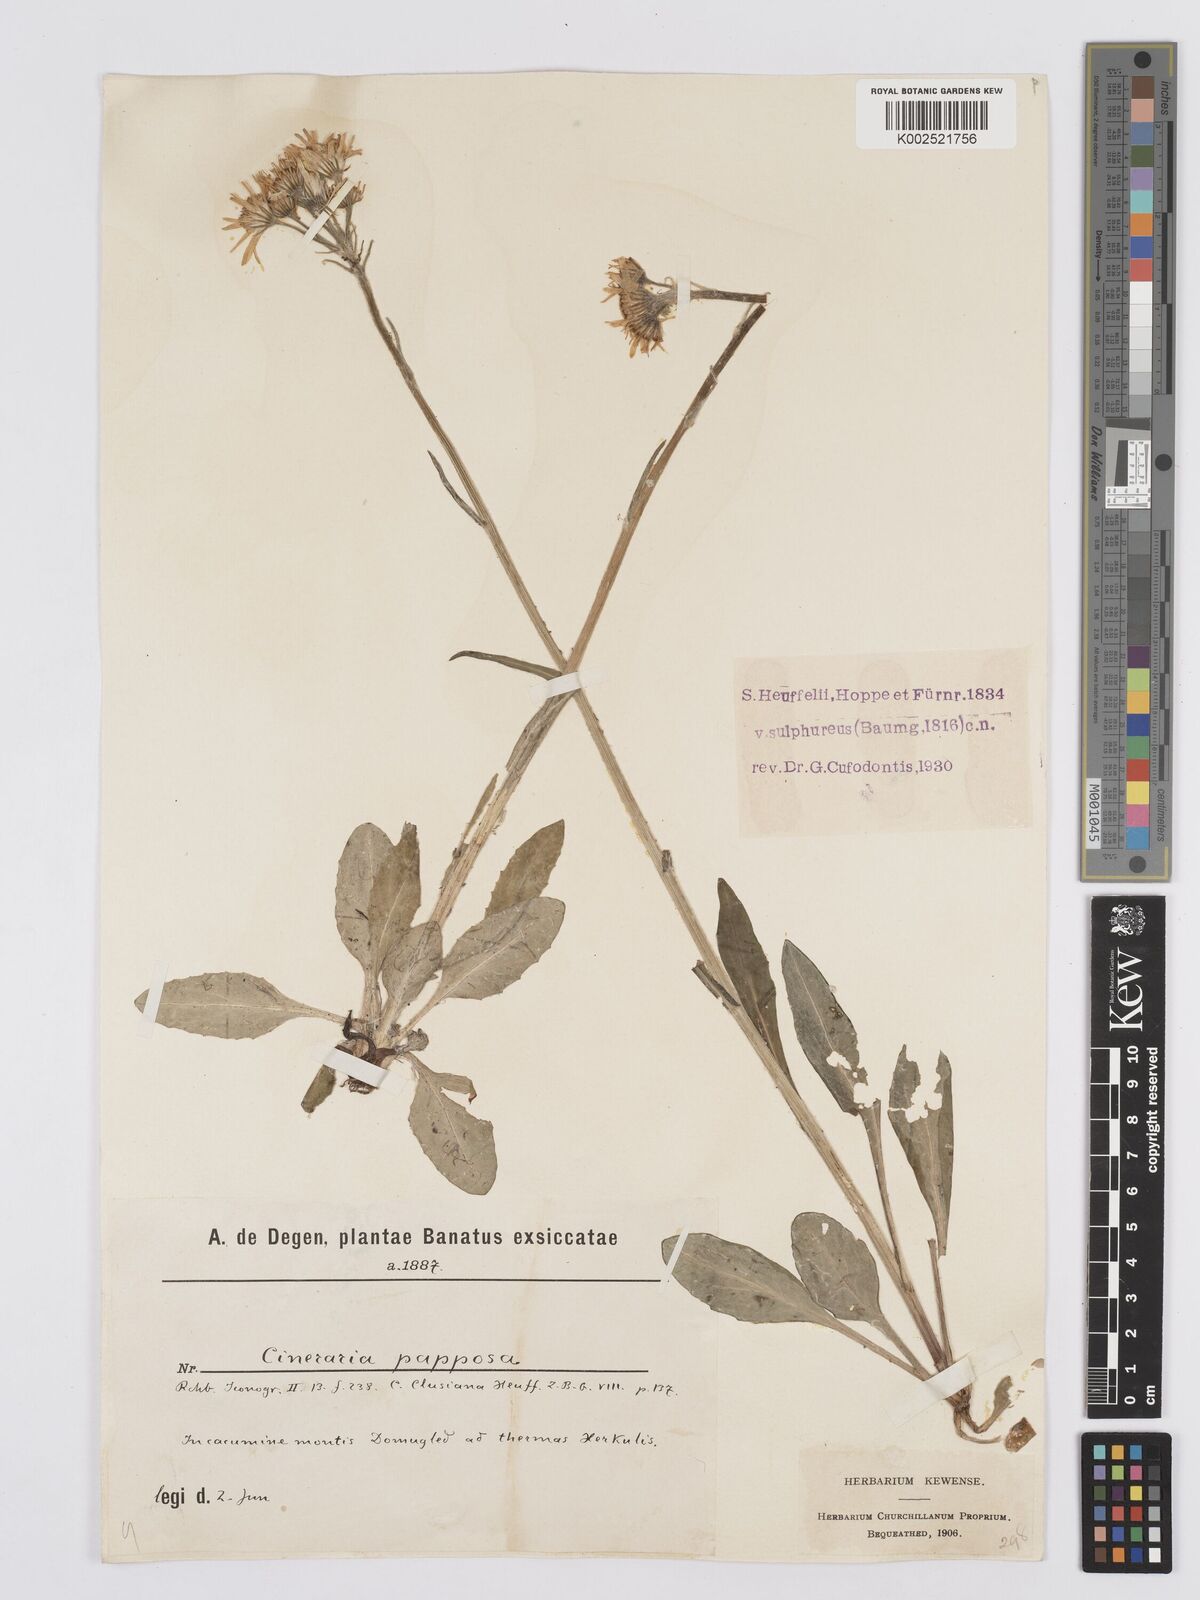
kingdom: Plantae
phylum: Tracheophyta
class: Magnoliopsida
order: Asterales
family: Asteraceae
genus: Tephroseris
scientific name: Tephroseris papposa
